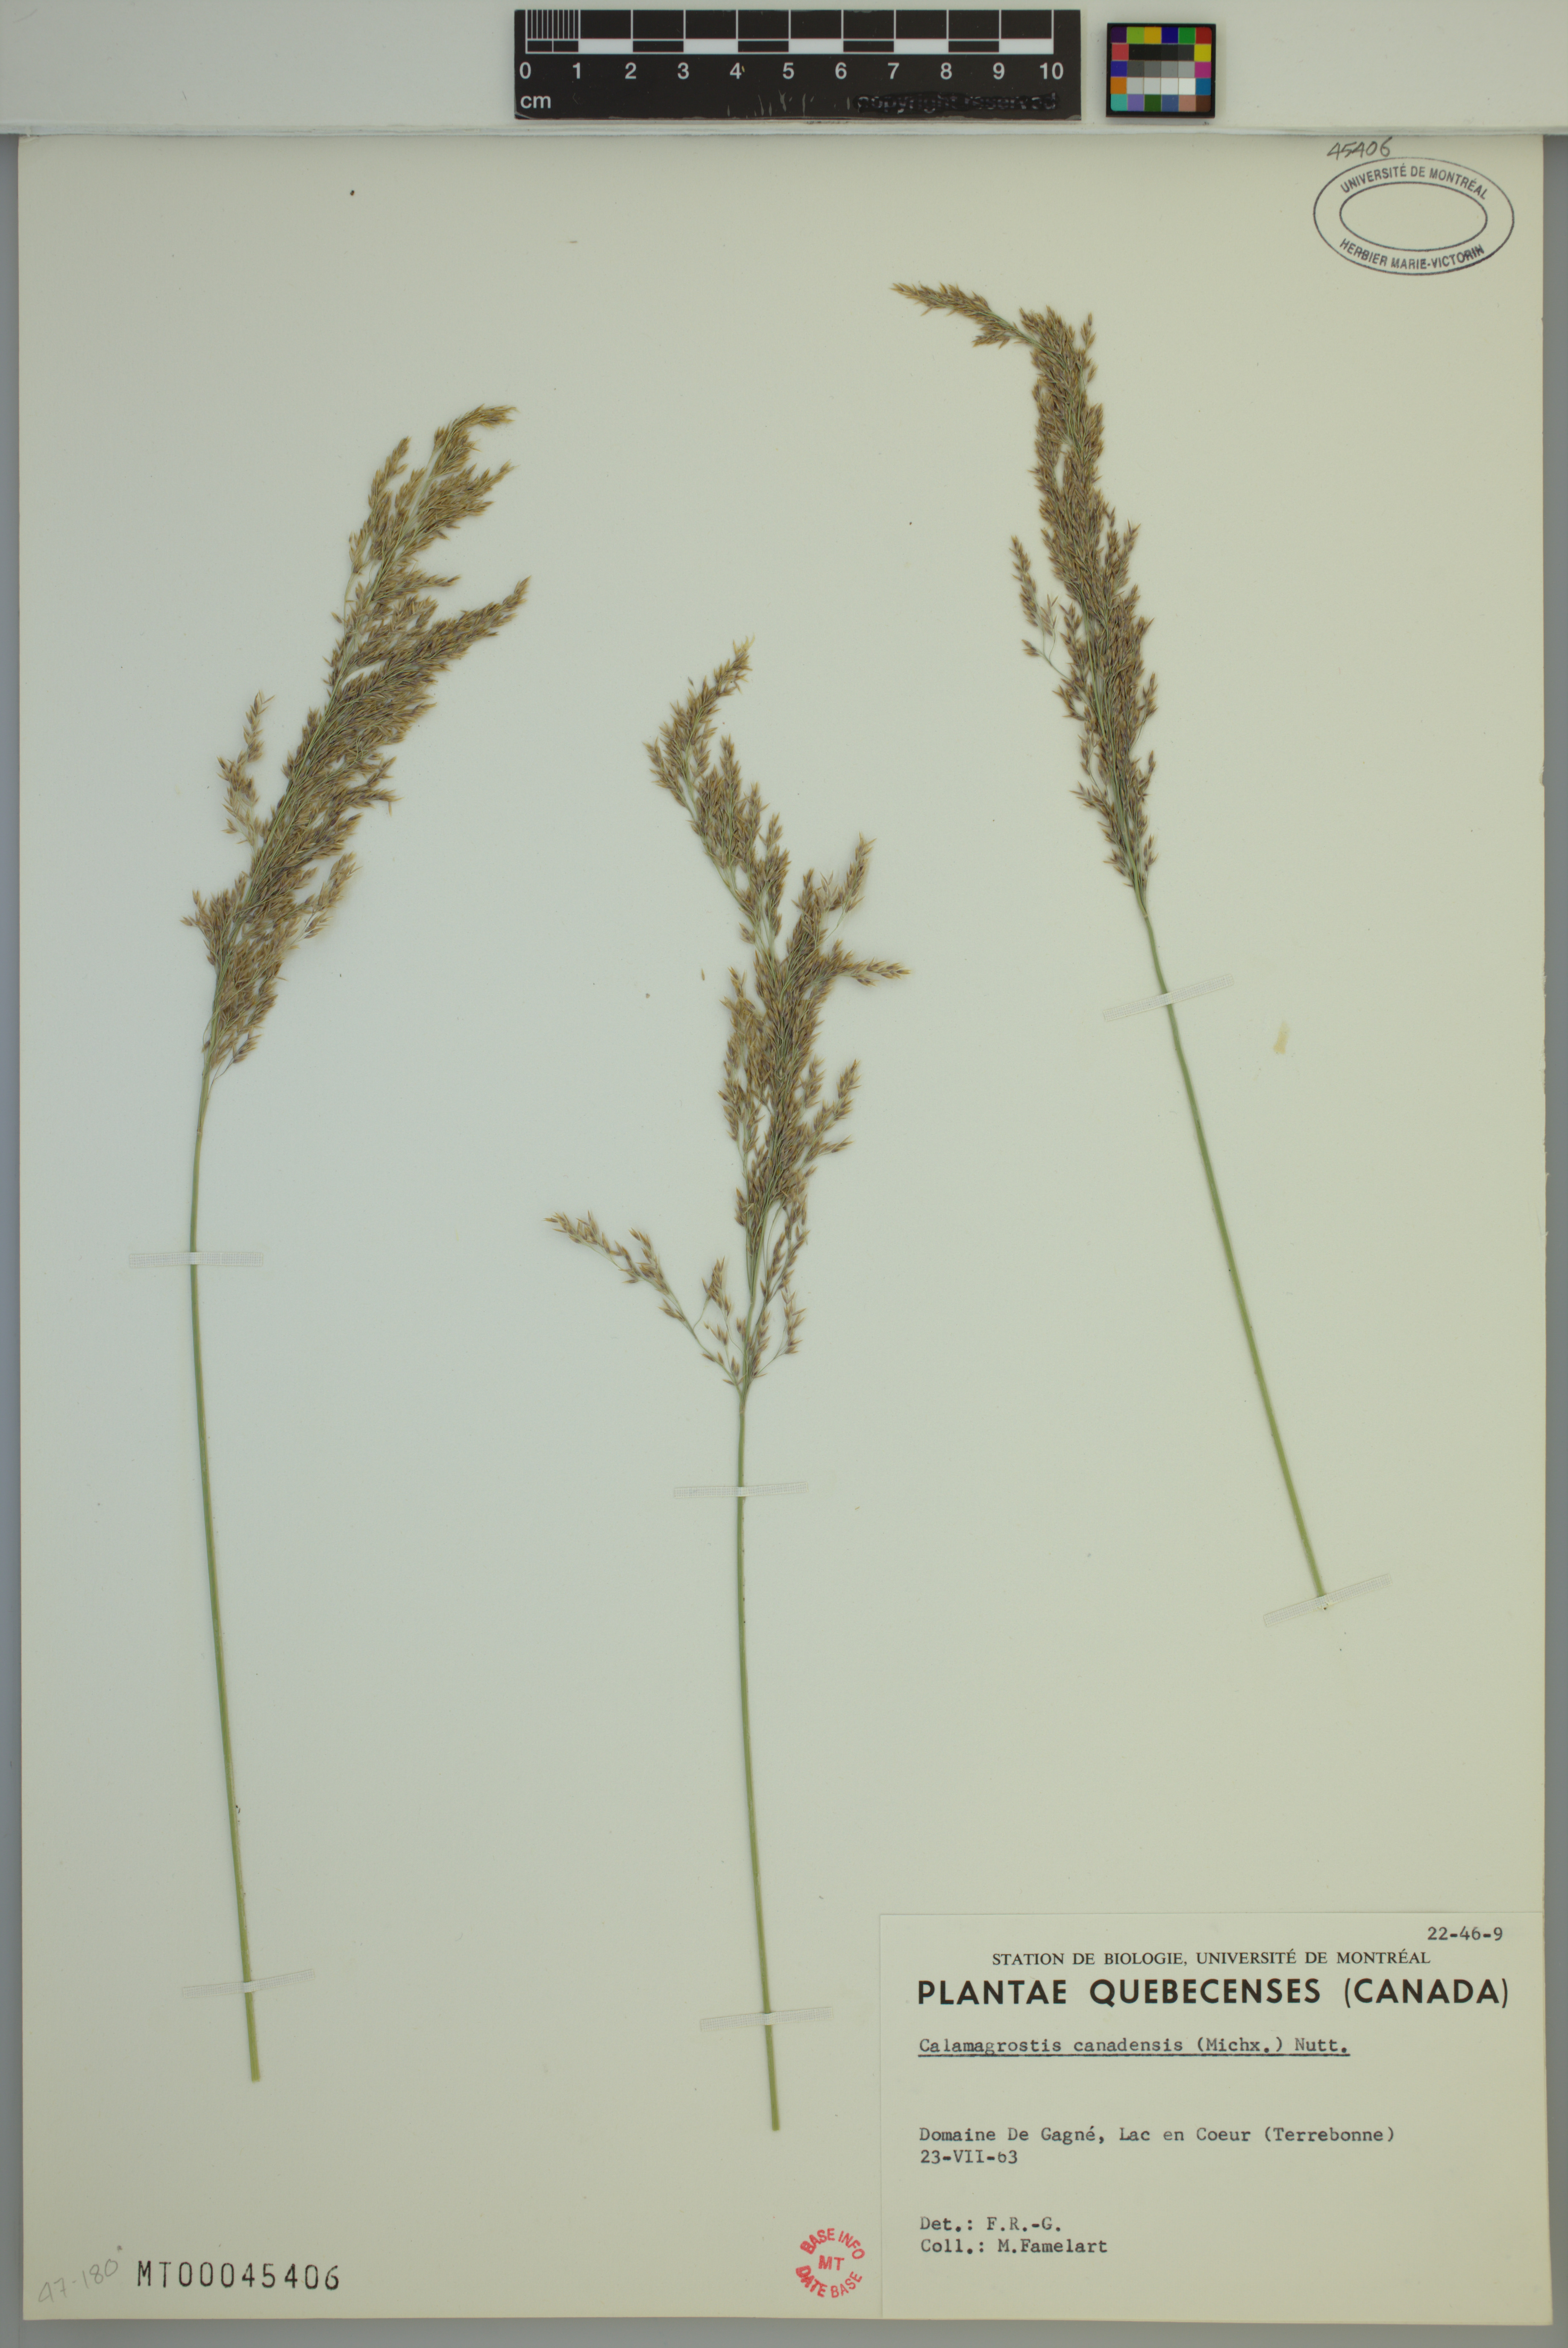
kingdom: Plantae
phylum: Tracheophyta
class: Liliopsida
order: Poales
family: Poaceae
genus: Calamagrostis
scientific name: Calamagrostis canadensis
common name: Canada bluejoint
